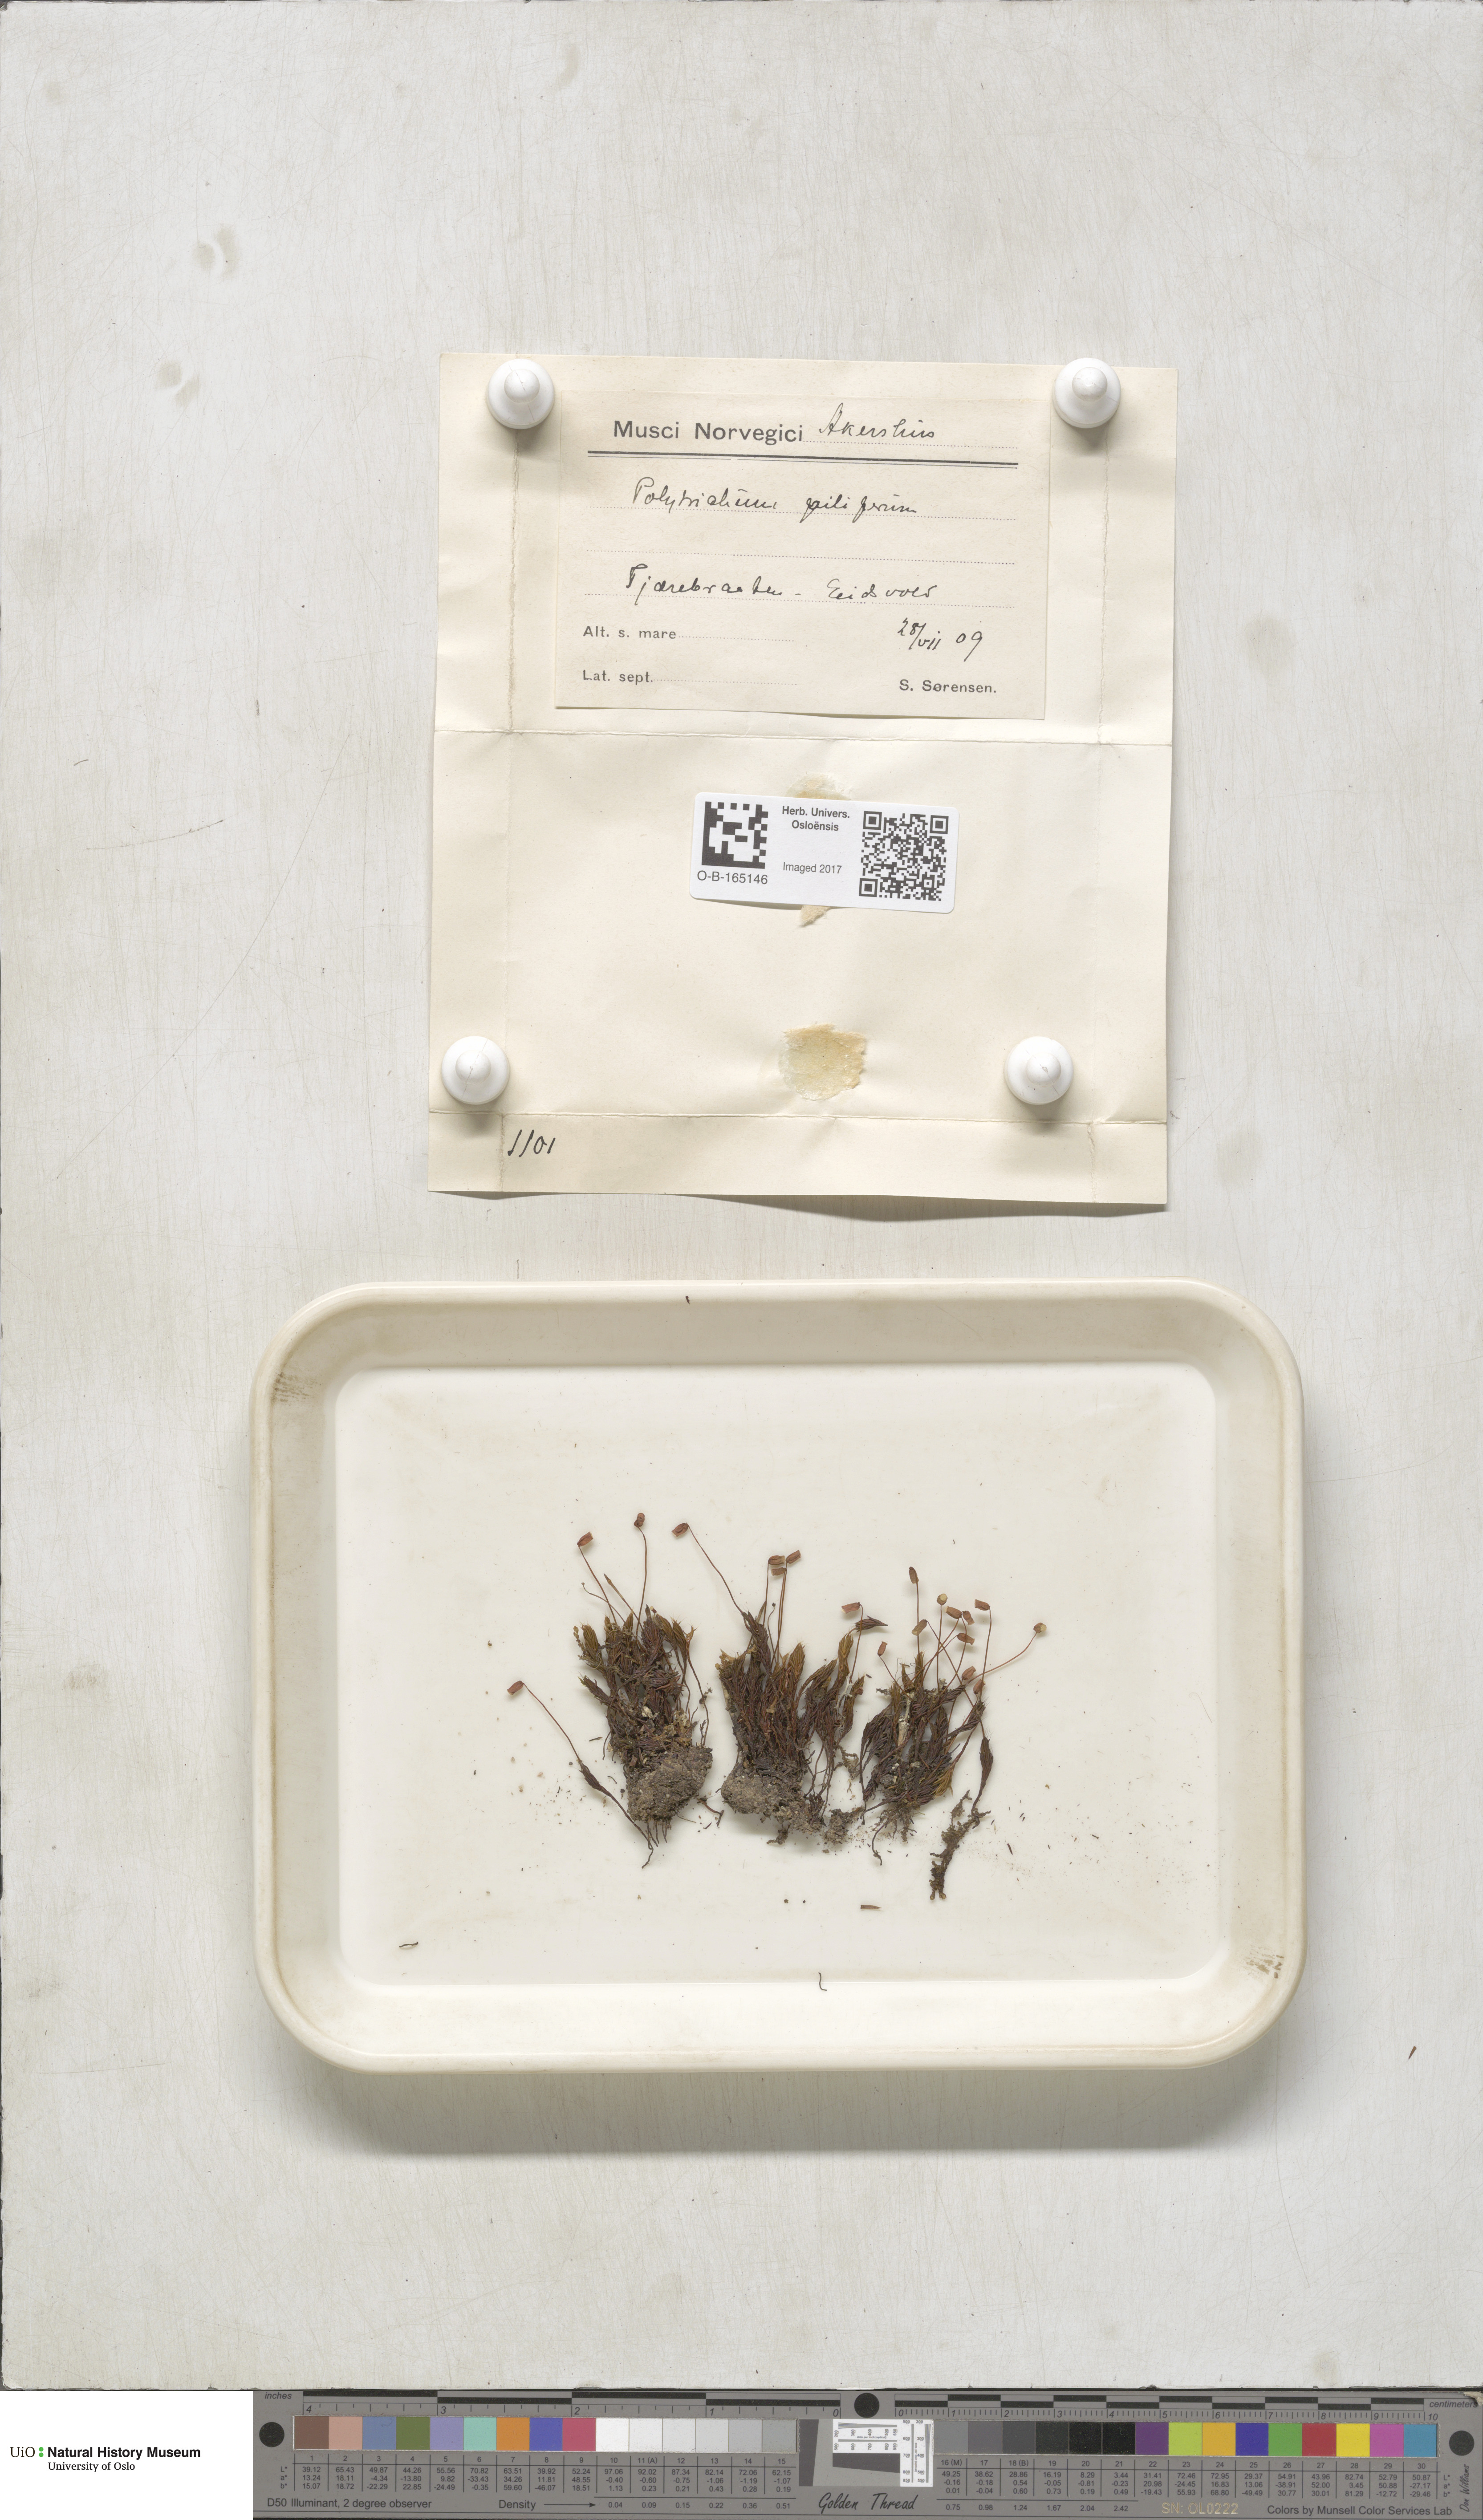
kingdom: Plantae
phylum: Bryophyta
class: Polytrichopsida
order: Polytrichales
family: Polytrichaceae
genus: Polytrichum
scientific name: Polytrichum piliferum
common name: Bristly haircap
